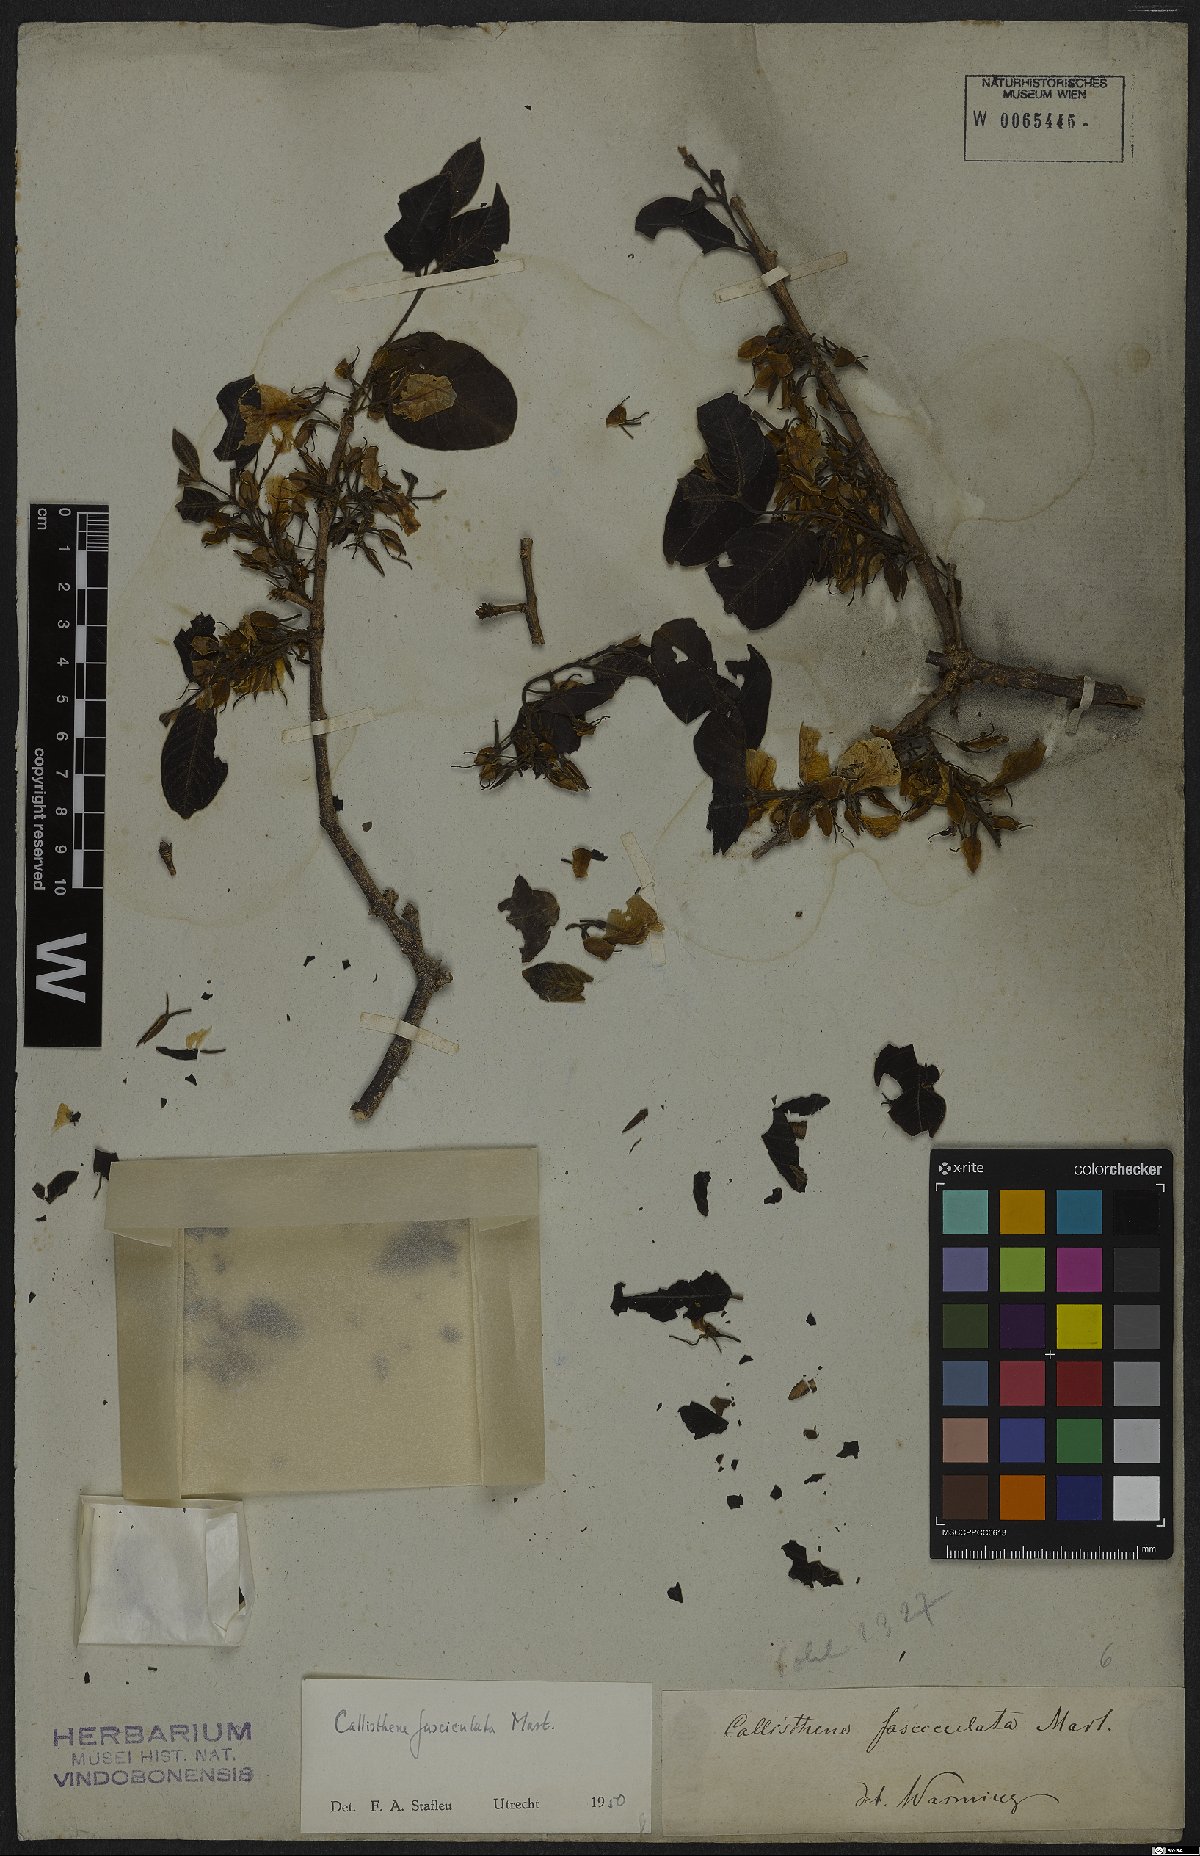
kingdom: Plantae
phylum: Tracheophyta
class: Magnoliopsida
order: Myrtales
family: Vochysiaceae
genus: Callisthene
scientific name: Callisthene fasciculata
